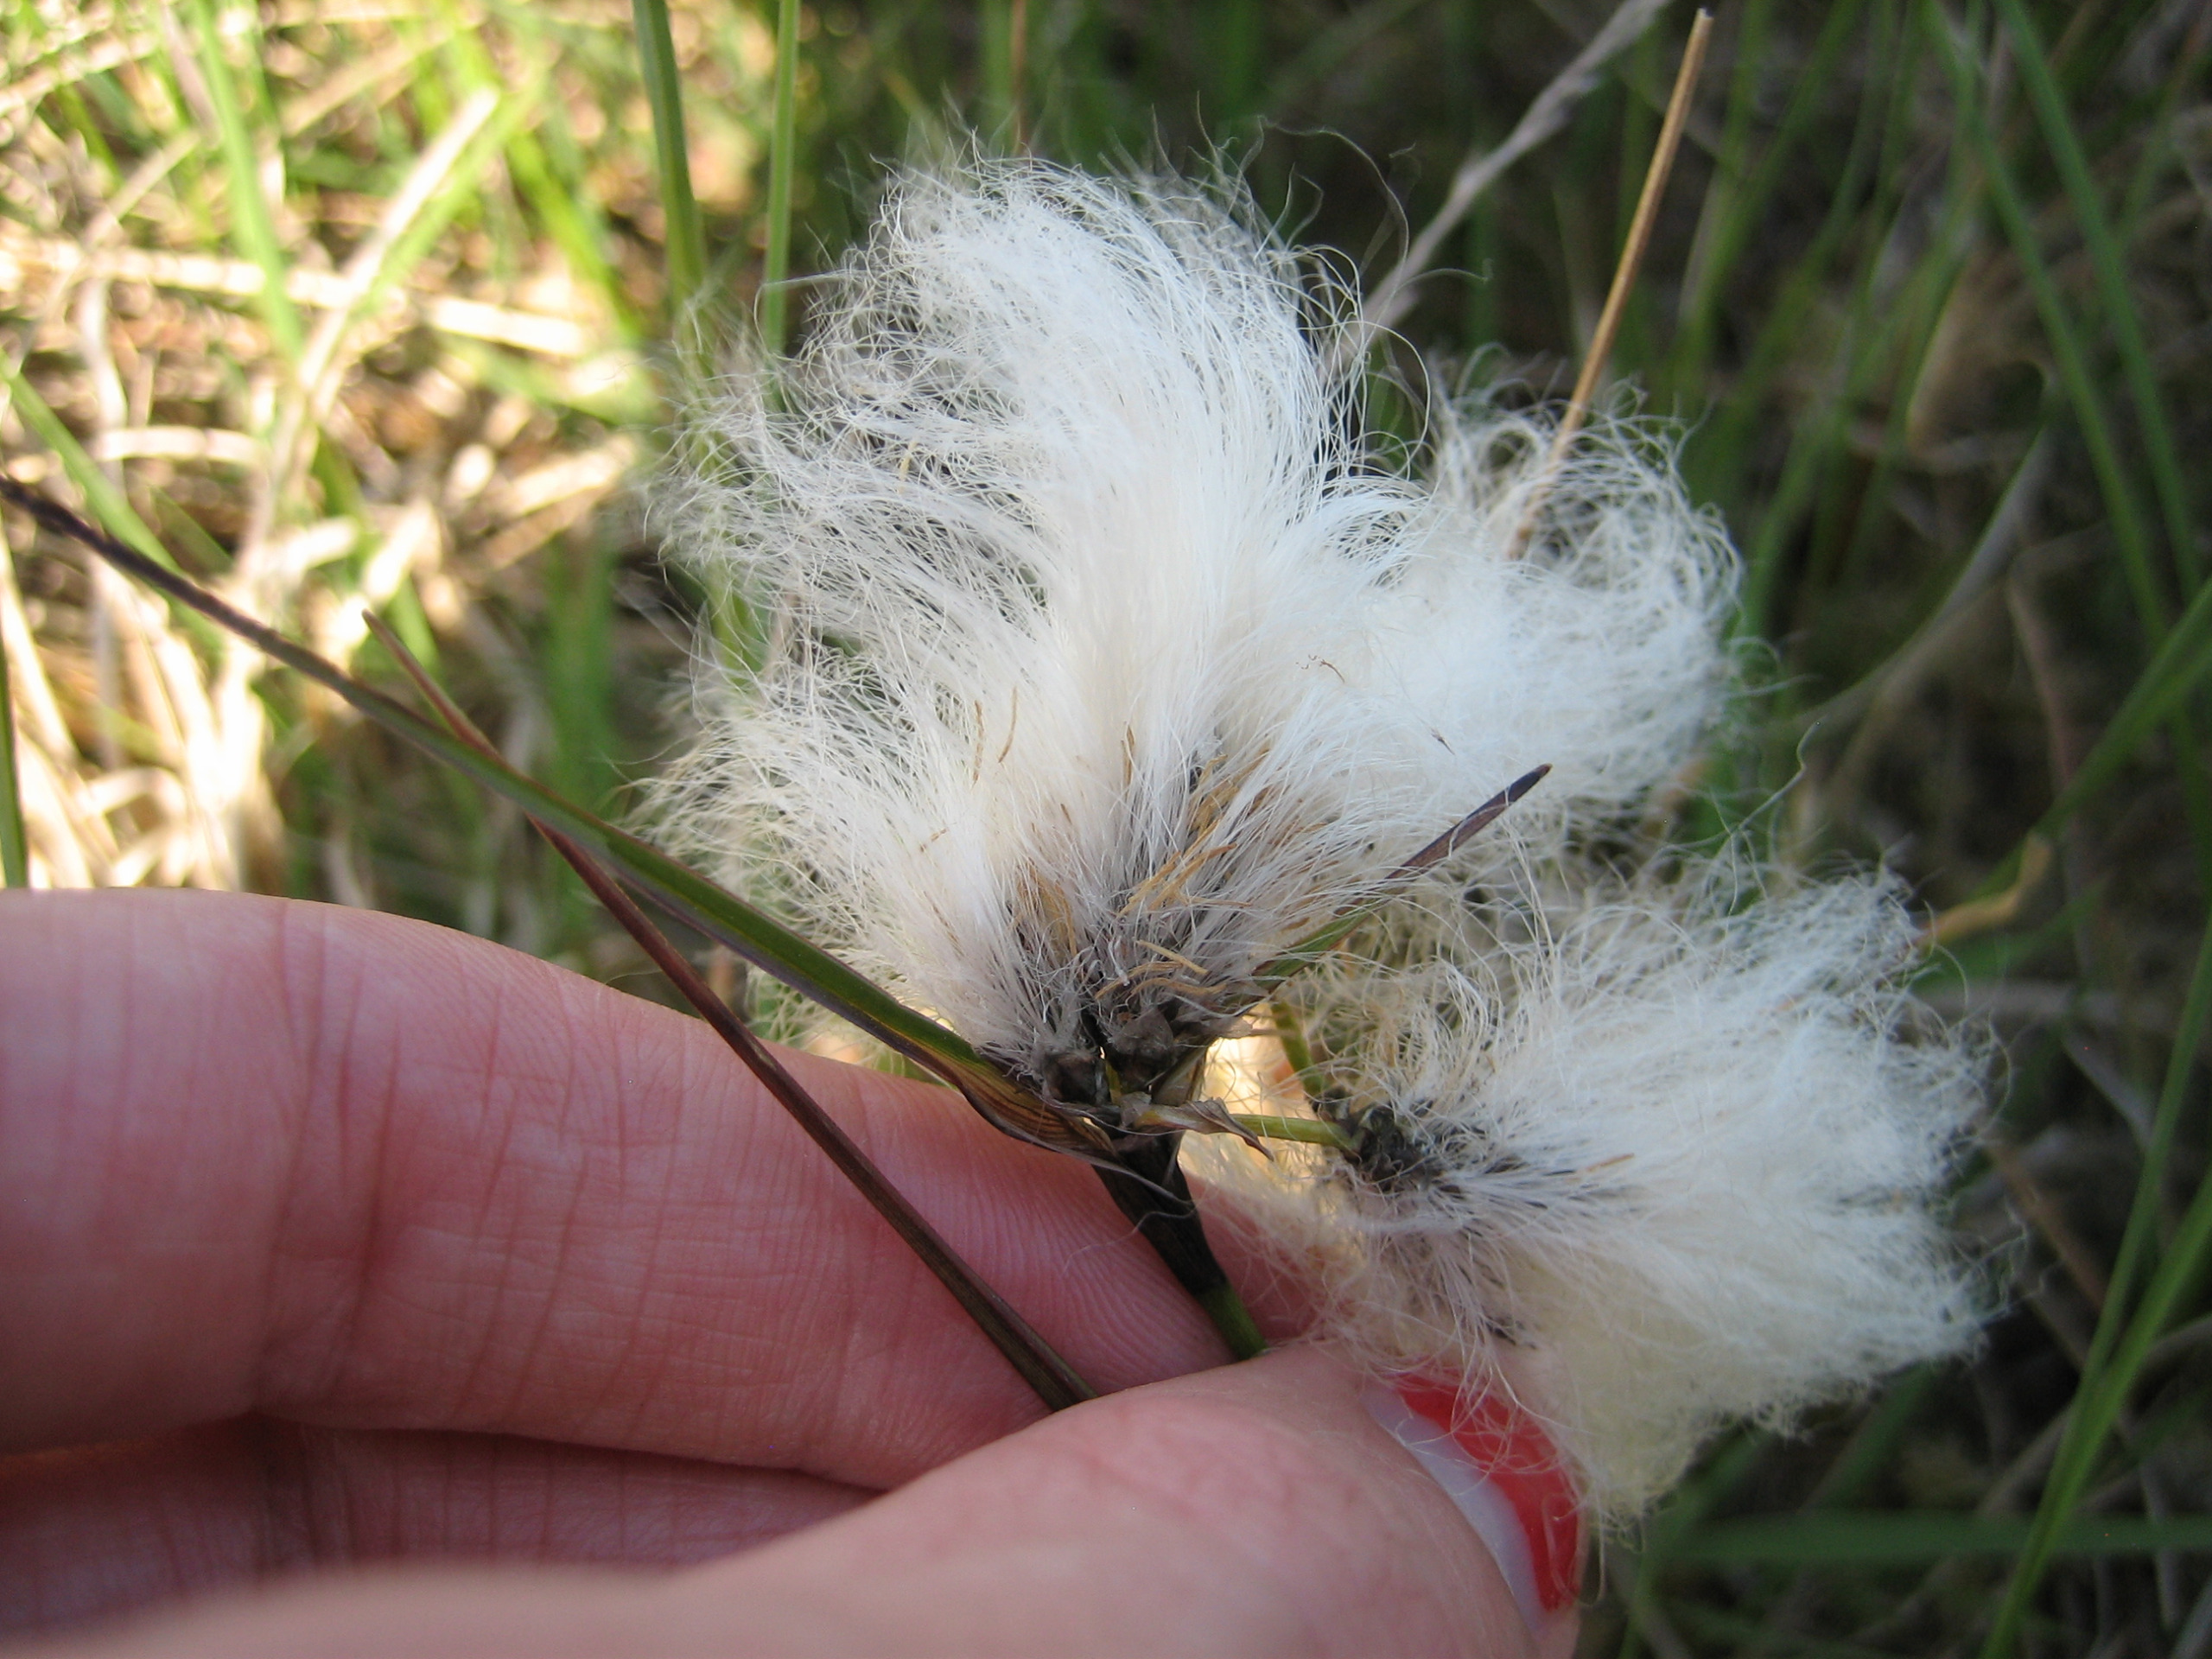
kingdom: Plantae
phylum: Tracheophyta
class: Liliopsida
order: Poales
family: Cyperaceae
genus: Eriophorum
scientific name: Eriophorum angustifolium
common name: Smalbladet kæruld
